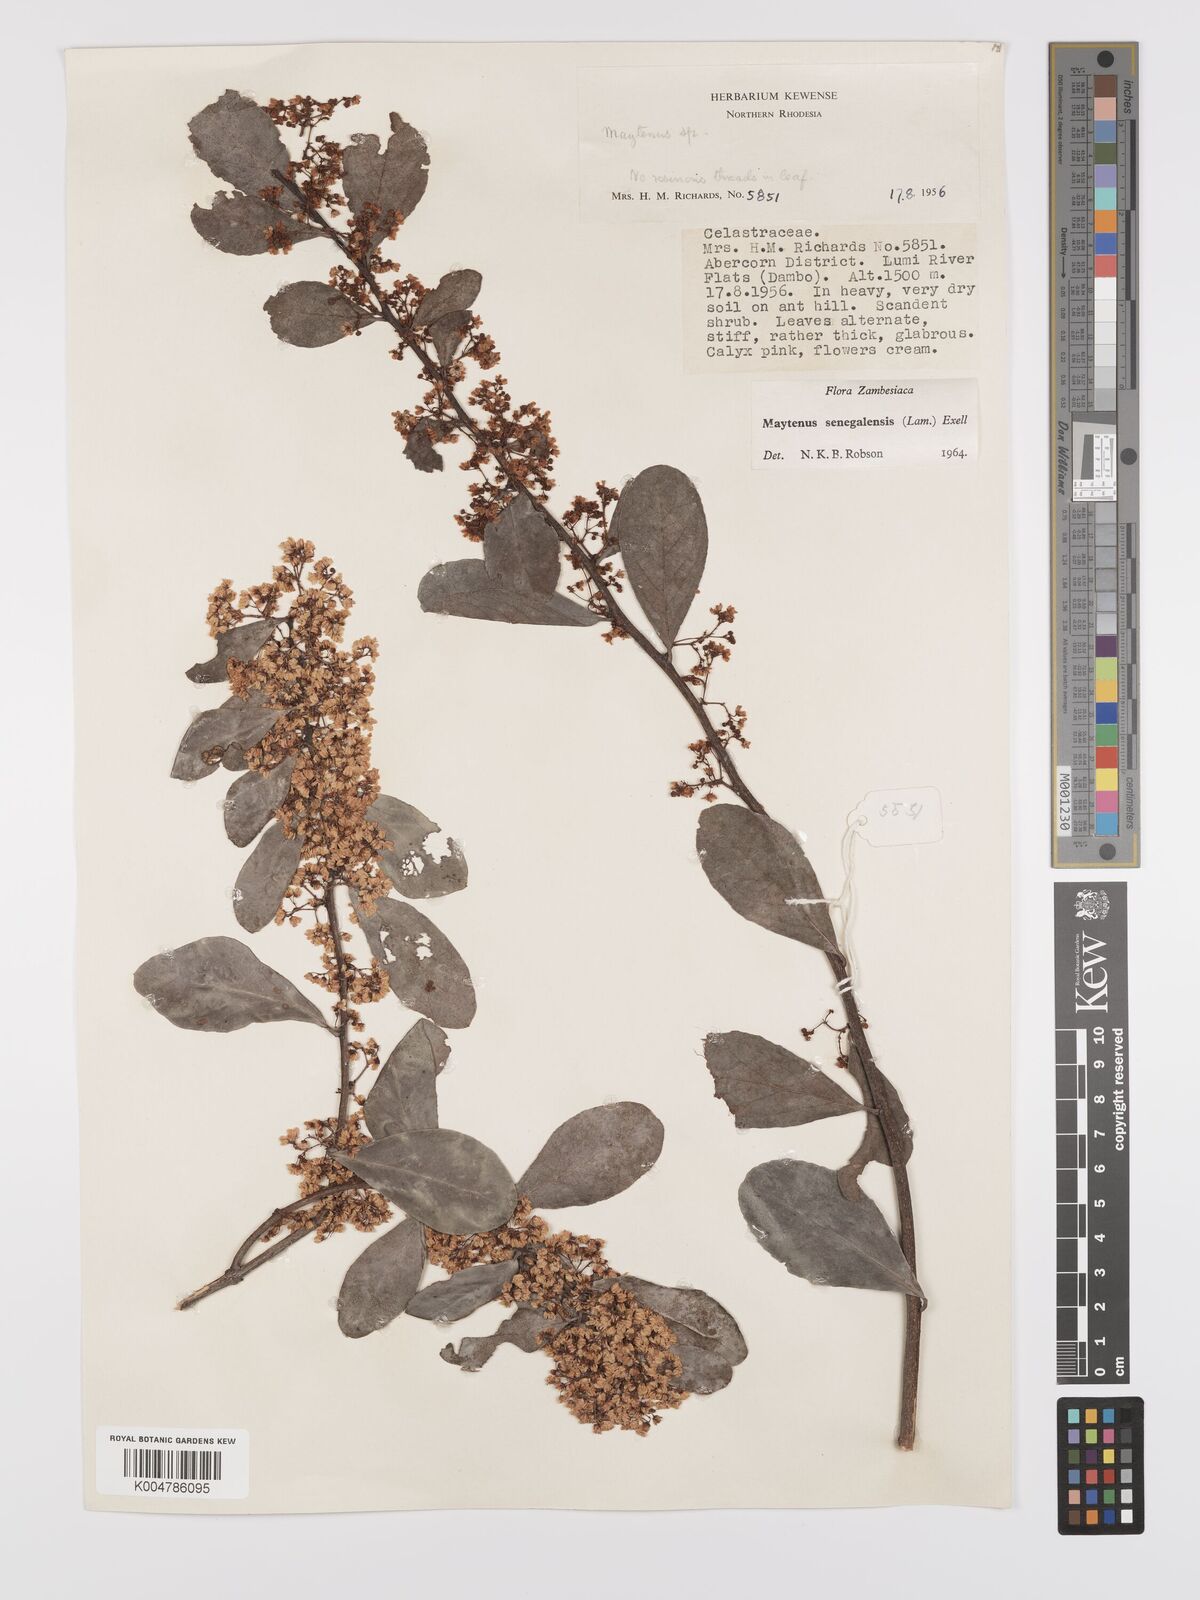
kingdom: Plantae
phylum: Tracheophyta
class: Magnoliopsida
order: Celastrales
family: Celastraceae
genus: Gymnosporia
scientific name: Gymnosporia senegalensis
